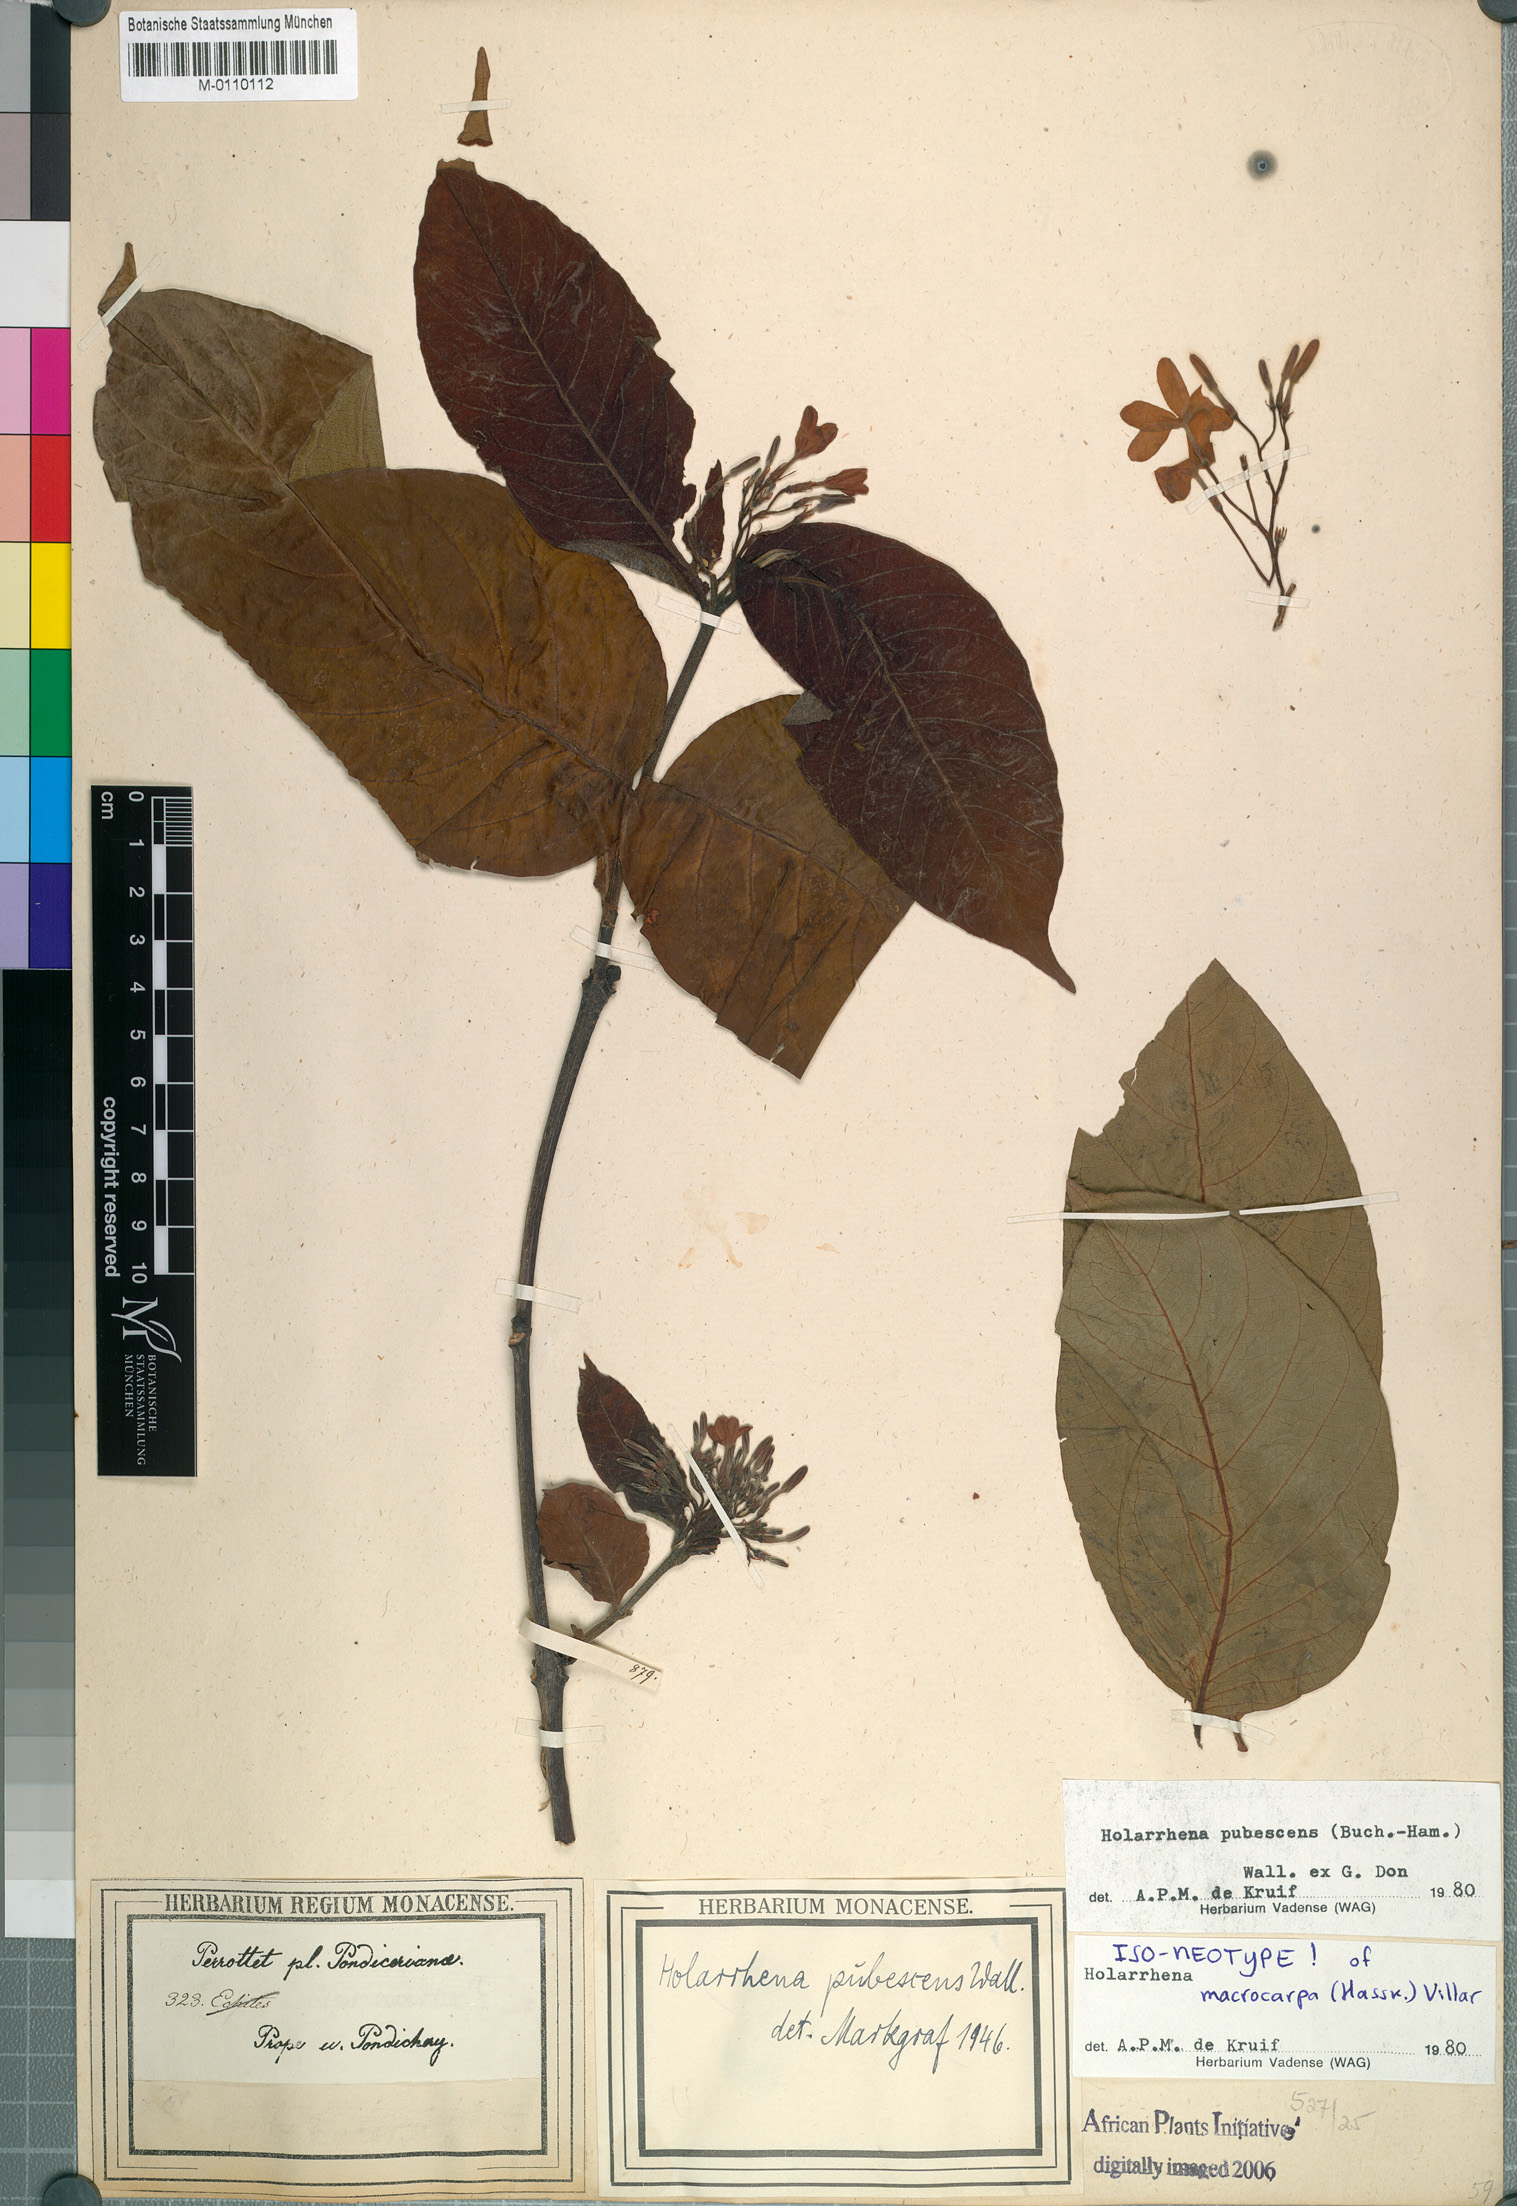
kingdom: Plantae
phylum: Tracheophyta
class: Magnoliopsida
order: Gentianales
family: Apocynaceae
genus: Holarrhena
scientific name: Holarrhena pubescens
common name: Bitter oleander
